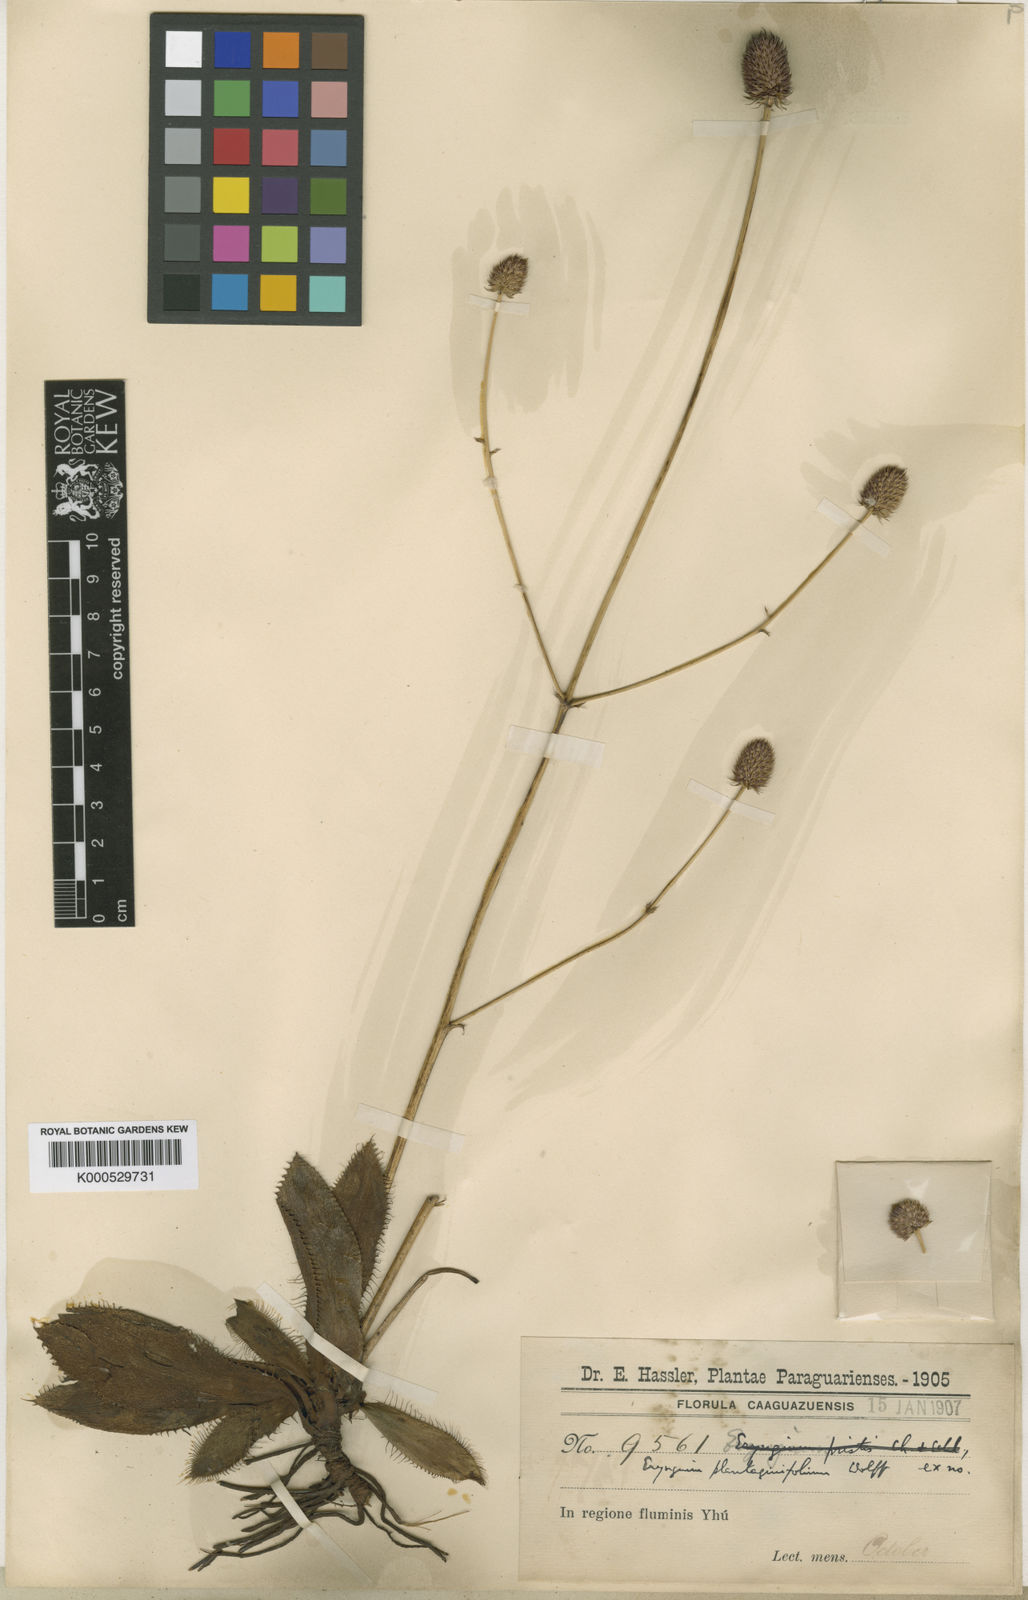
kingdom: Plantae
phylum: Tracheophyta
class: Magnoliopsida
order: Apiales
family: Apiaceae
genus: Eryngium
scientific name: Eryngium plantaginifolium
